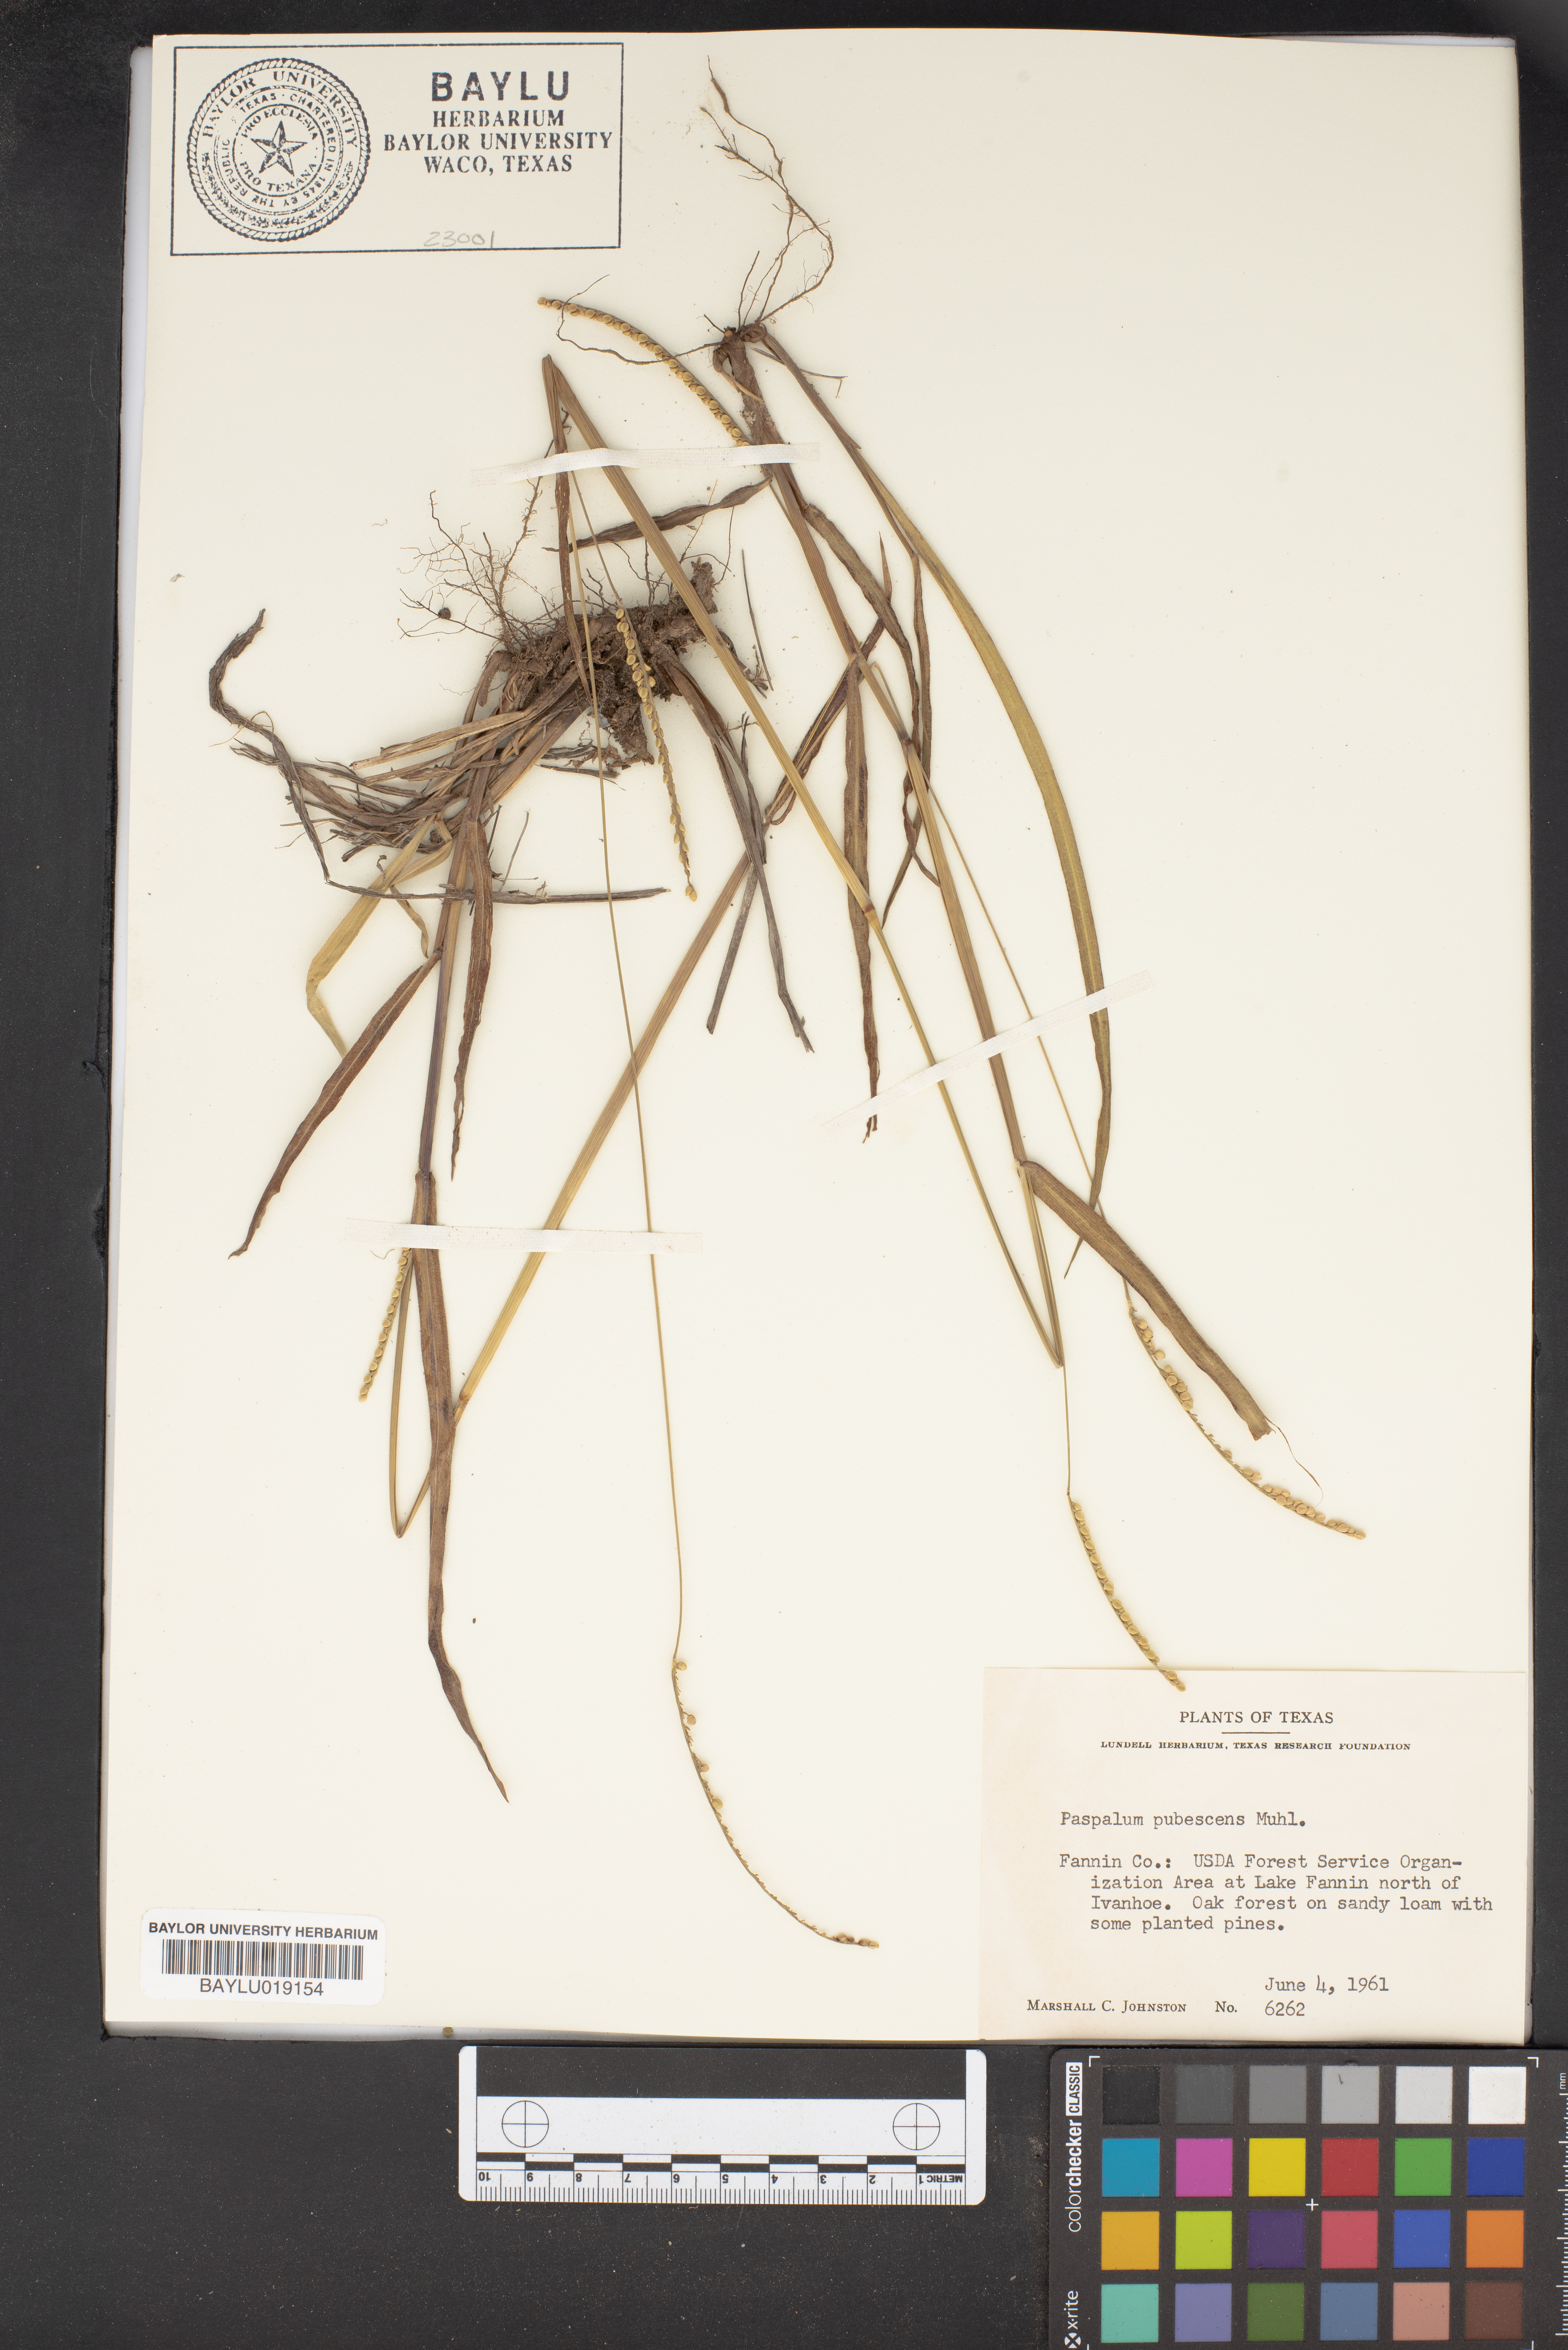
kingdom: Plantae
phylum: Tracheophyta
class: Liliopsida
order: Poales
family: Poaceae
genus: Paspalum
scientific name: Paspalum setaceum
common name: Slender paspalum
